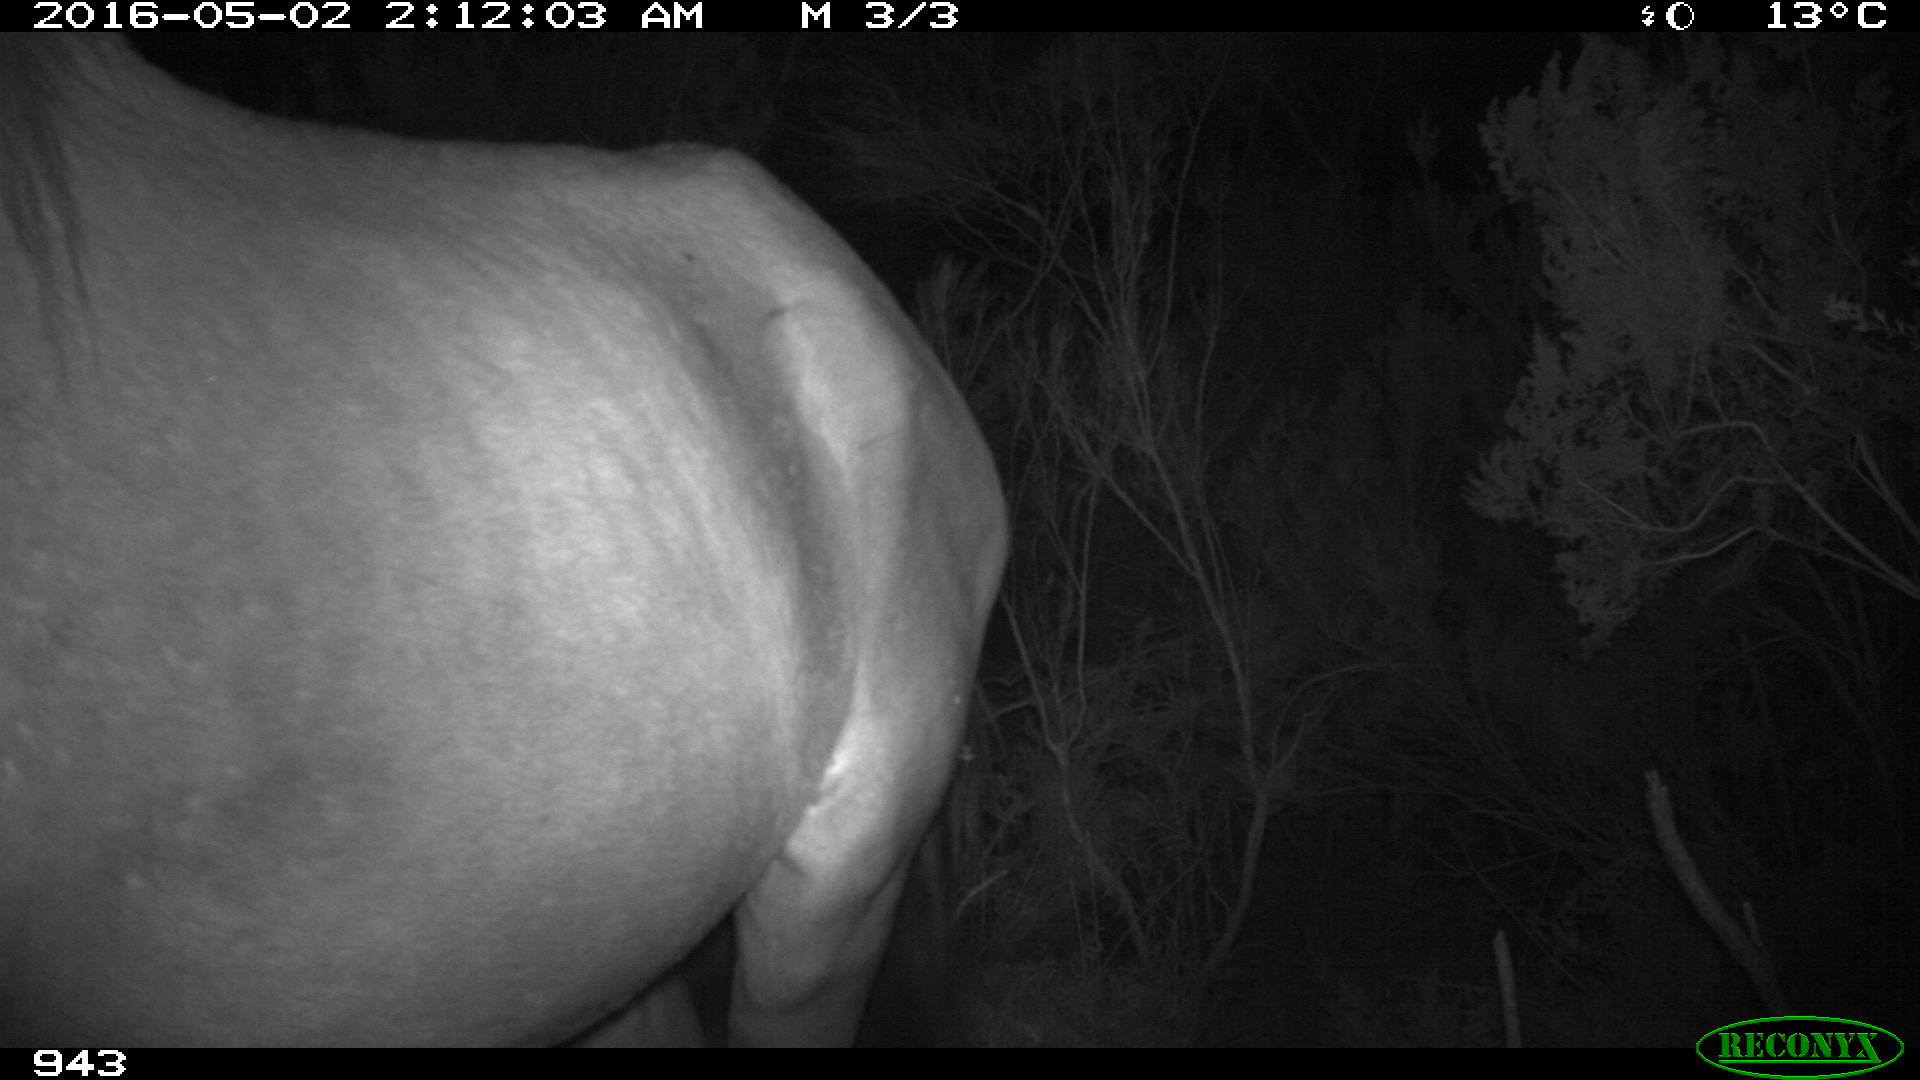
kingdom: Animalia
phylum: Chordata
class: Mammalia
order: Perissodactyla
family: Equidae
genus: Equus
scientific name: Equus caballus
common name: Horse
